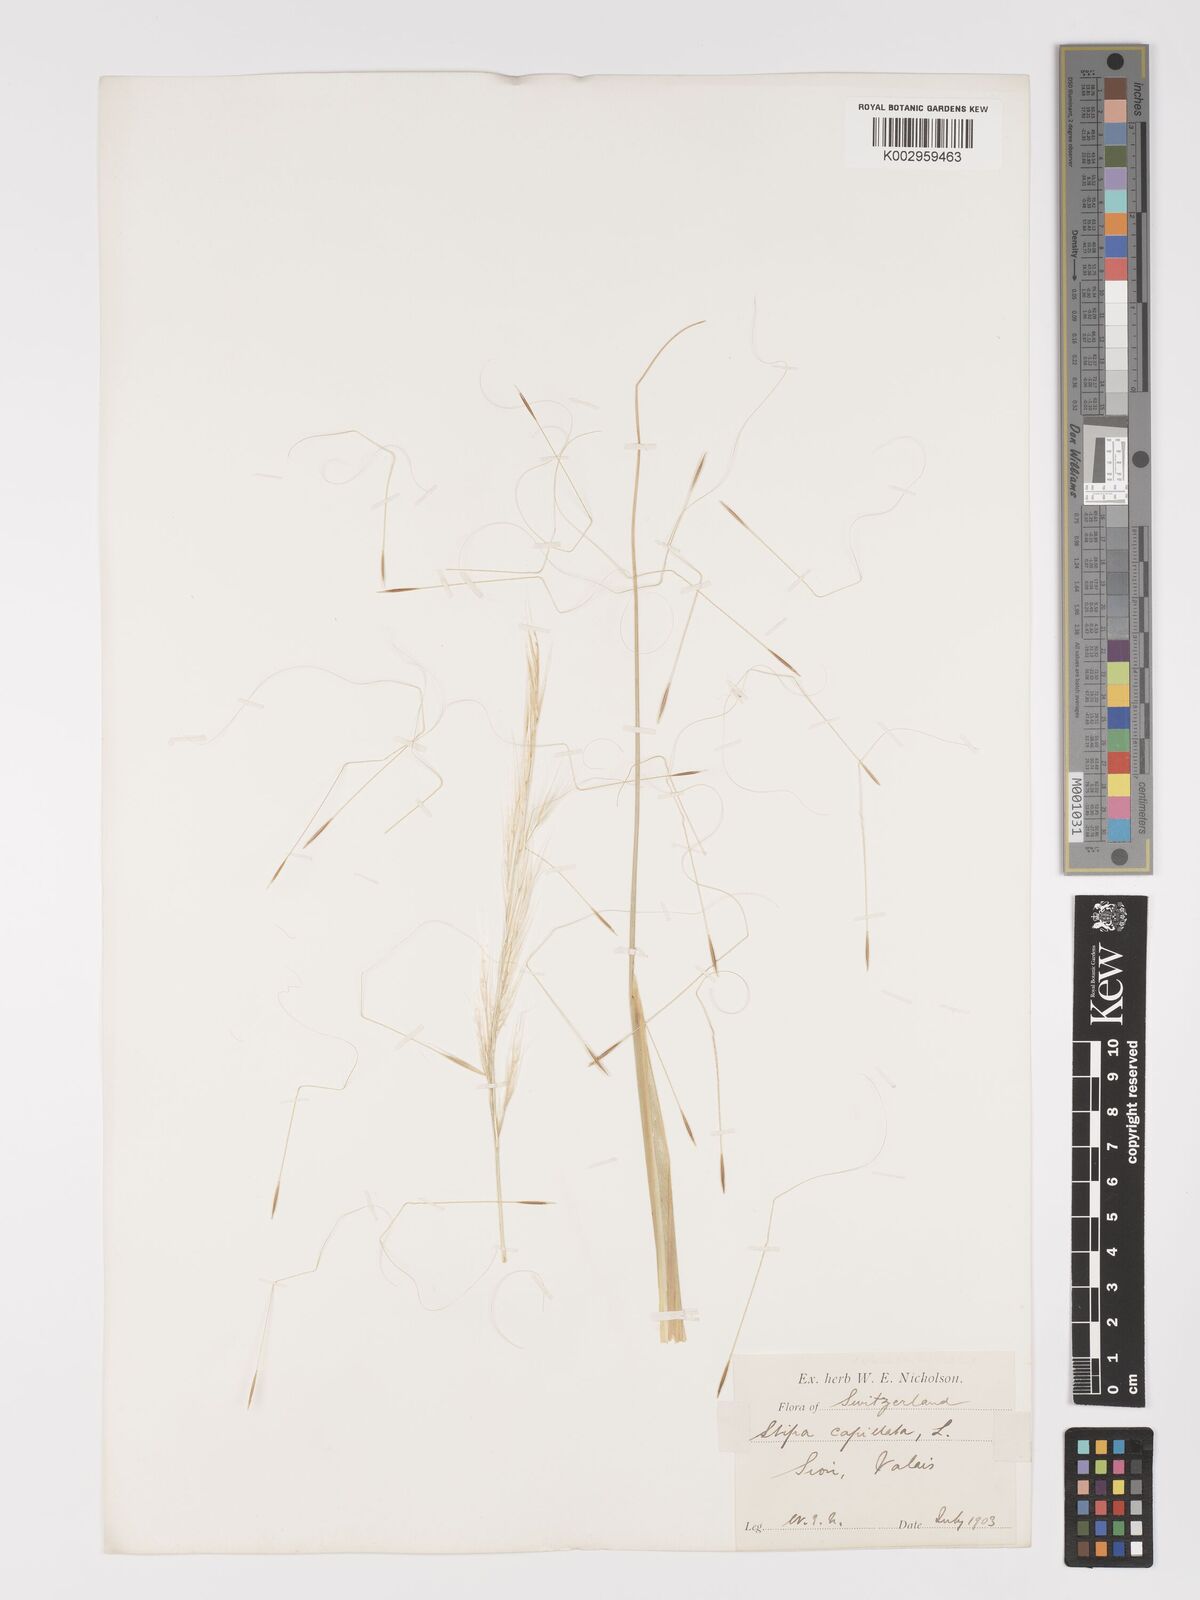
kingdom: Plantae
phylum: Tracheophyta
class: Liliopsida
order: Poales
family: Poaceae
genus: Stipa
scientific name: Stipa capillata
